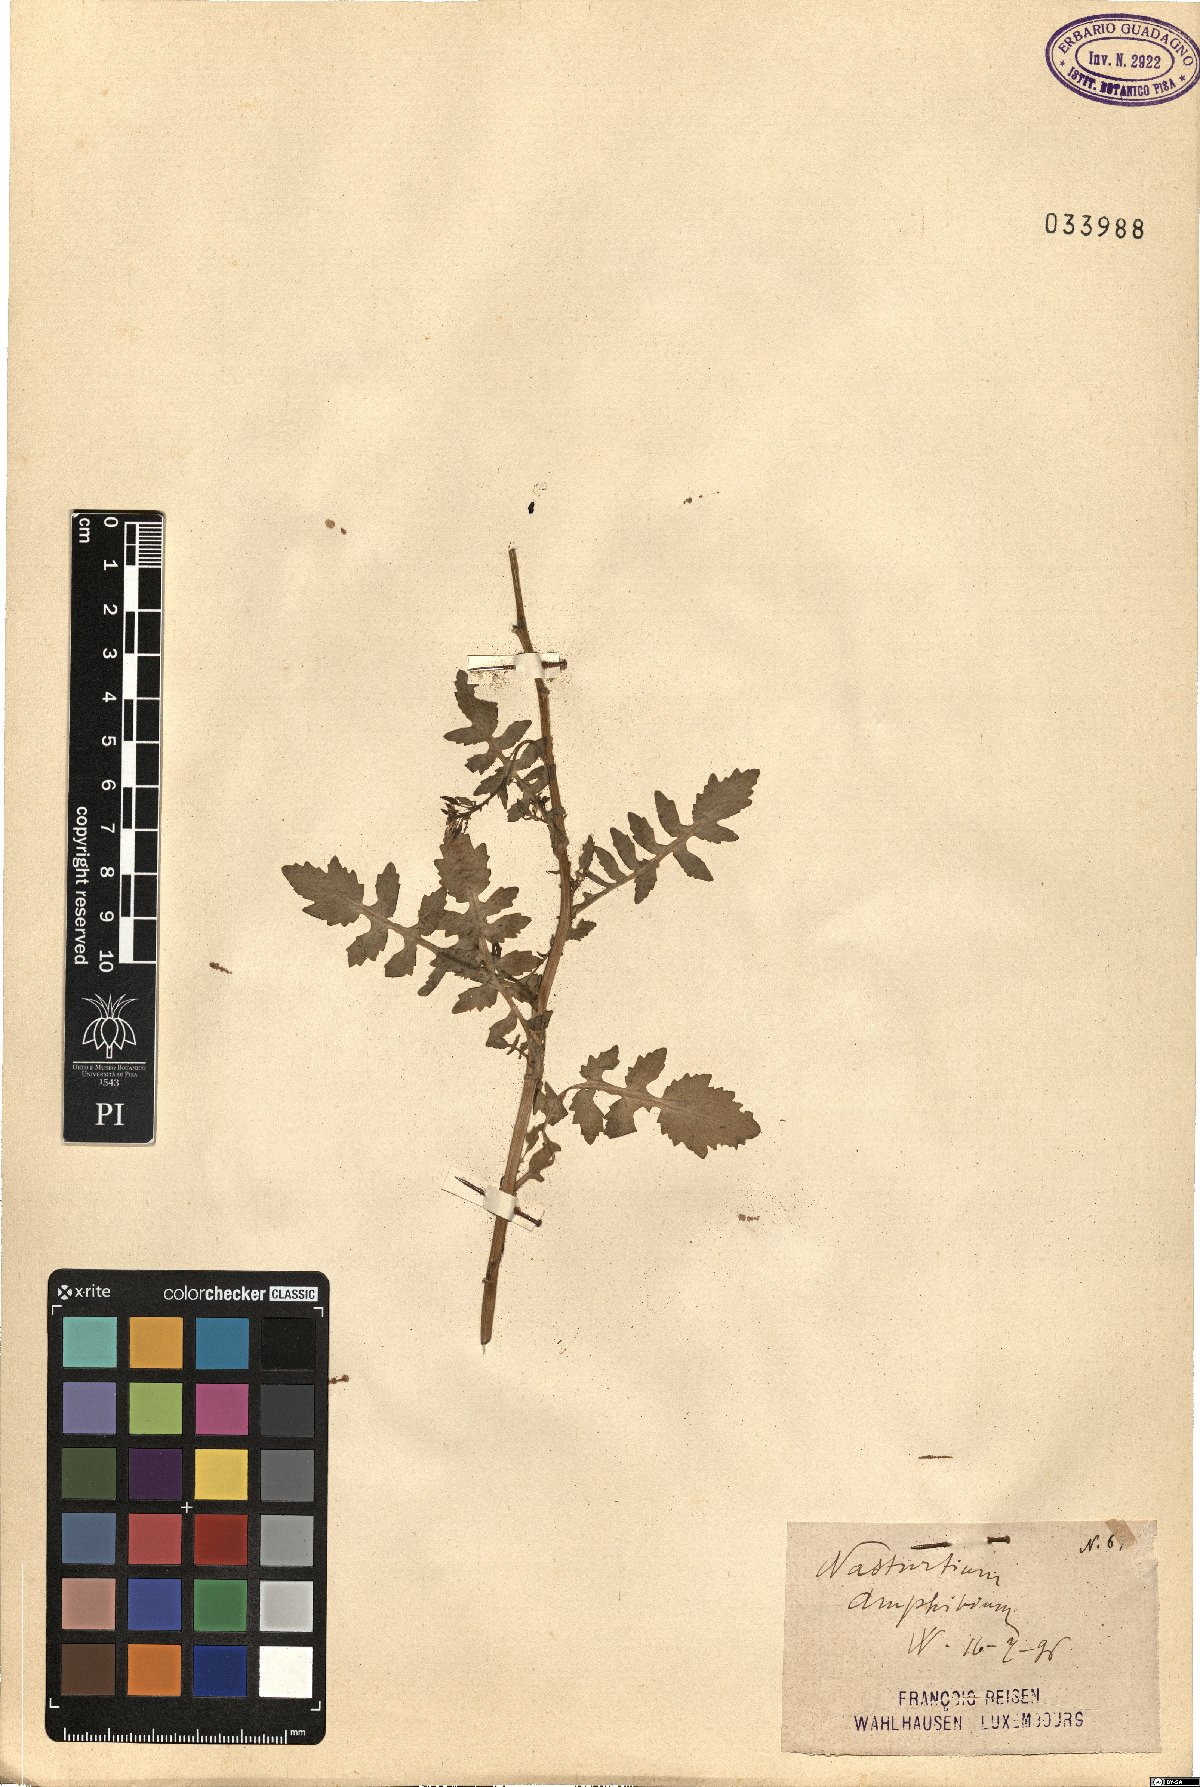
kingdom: Plantae
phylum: Tracheophyta
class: Magnoliopsida
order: Brassicales
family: Brassicaceae
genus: Rorippa
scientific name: Rorippa amphibia
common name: Great yellow-cress
